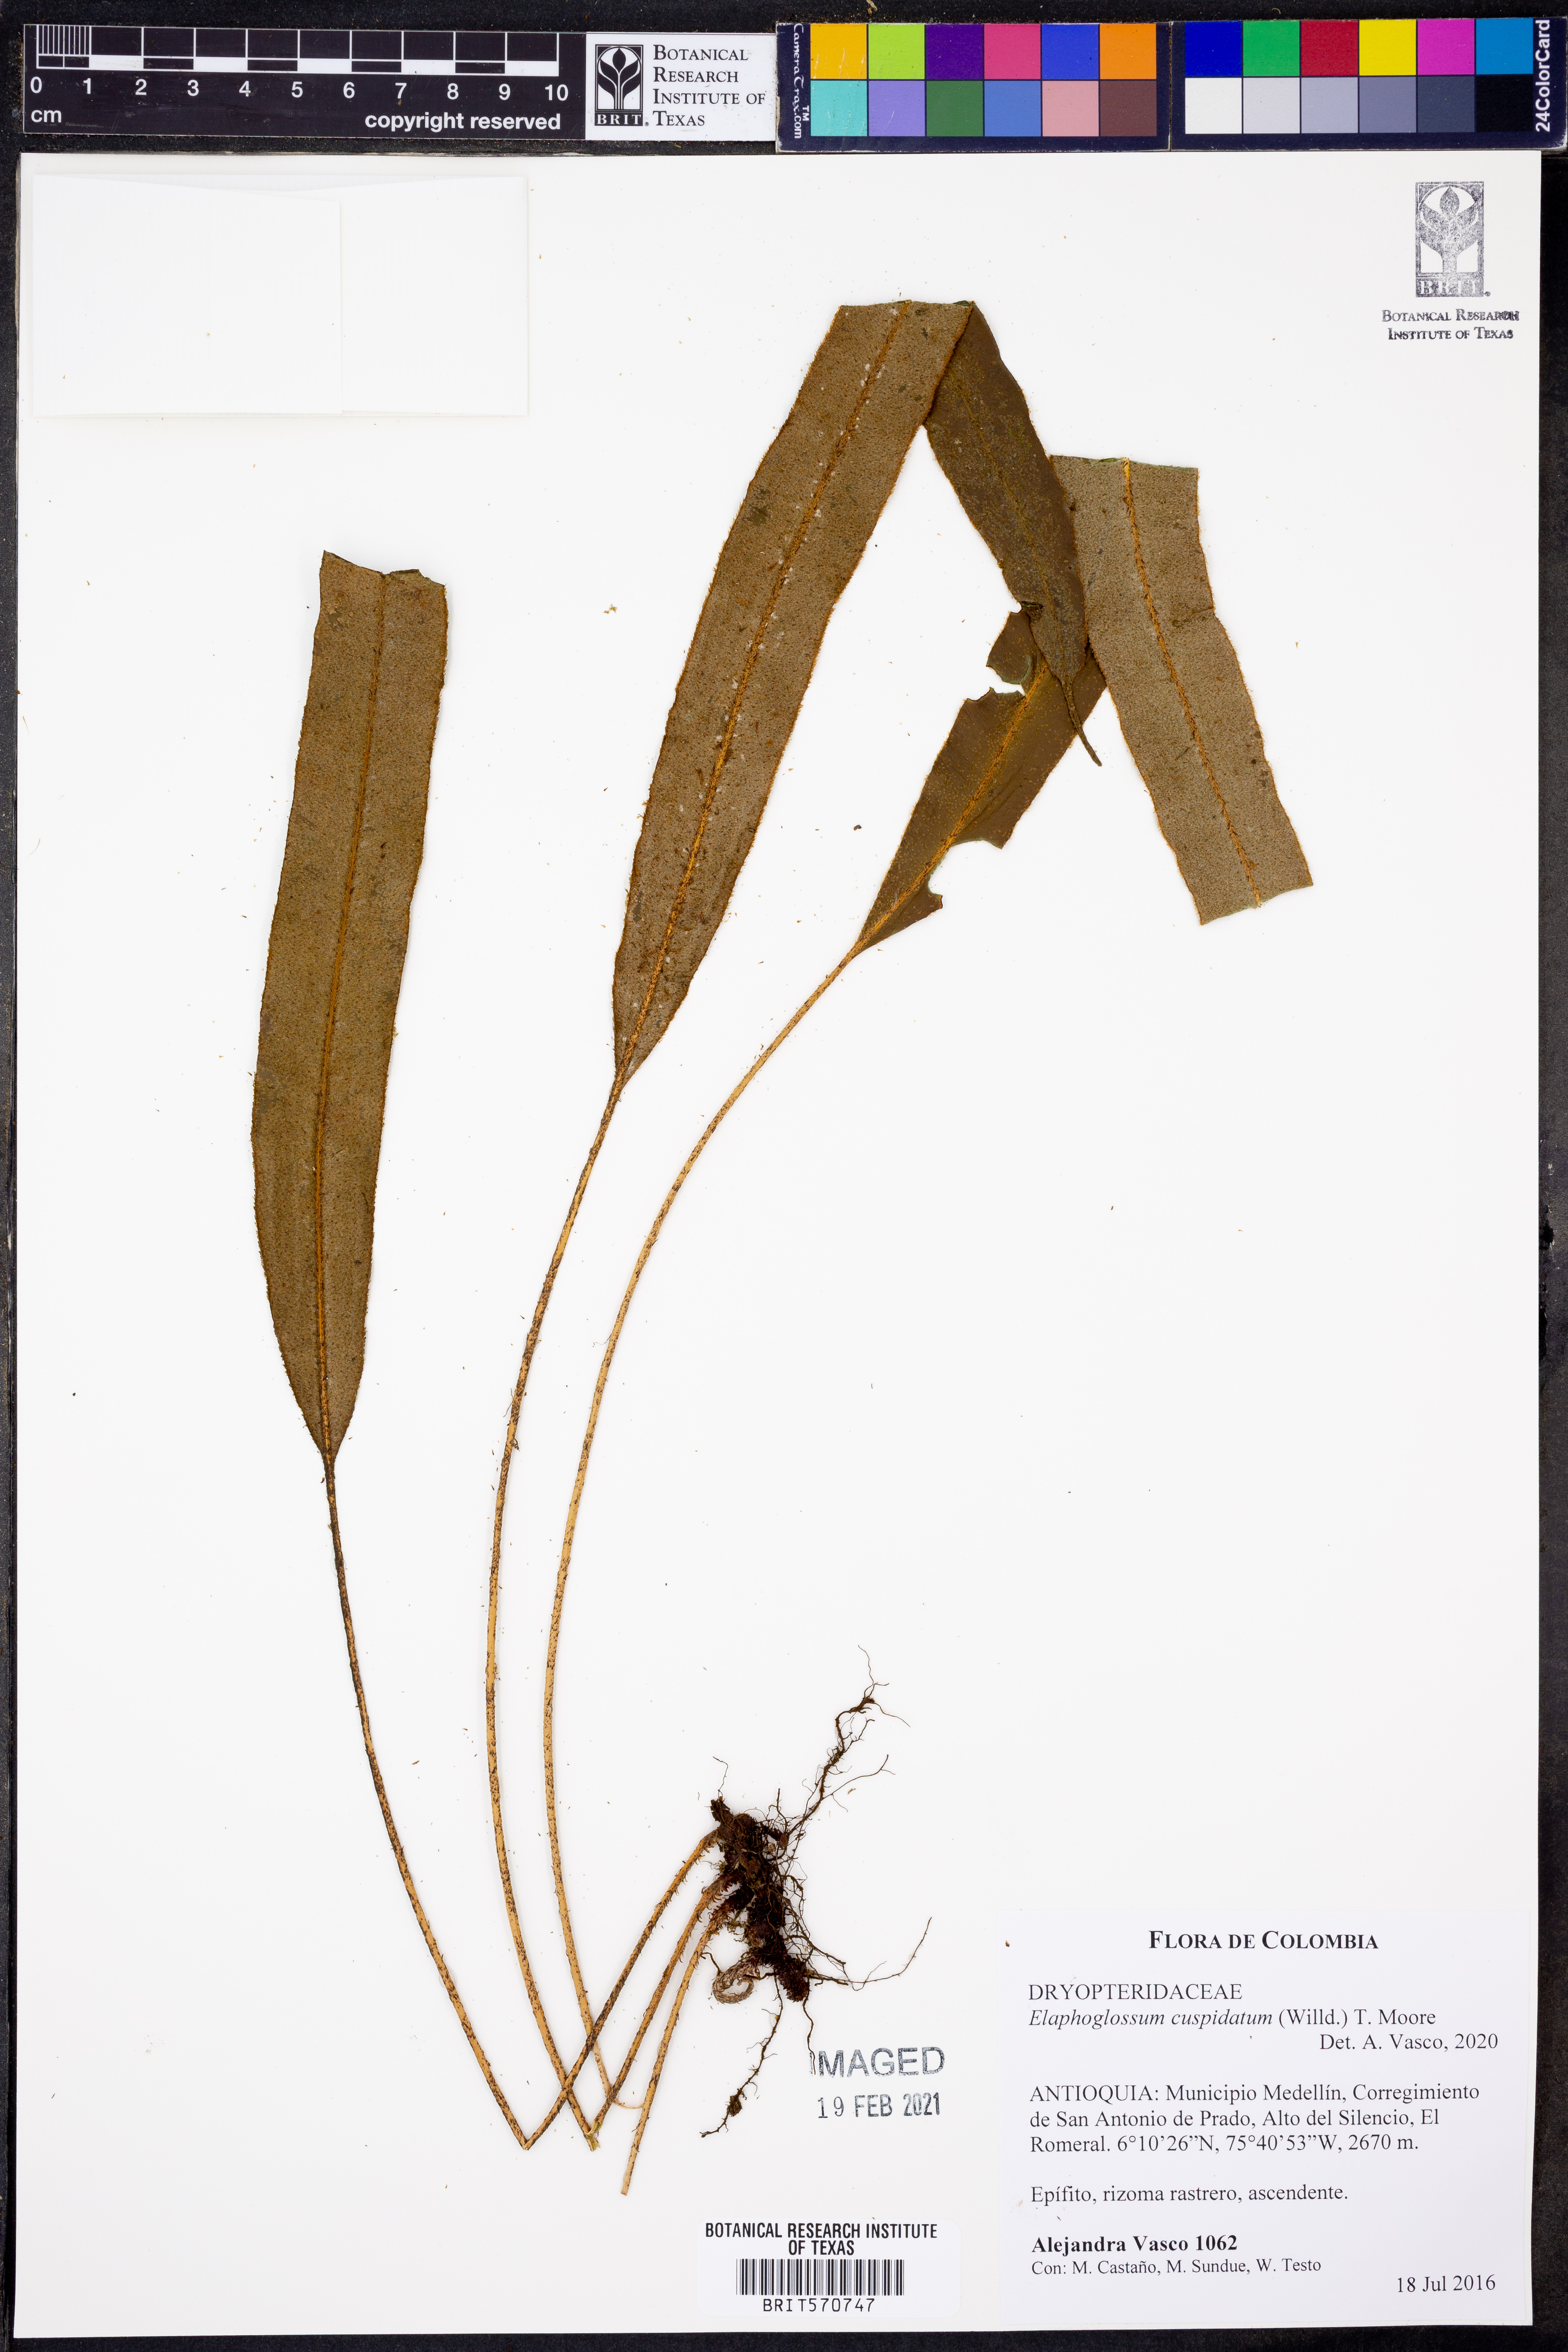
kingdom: Plantae
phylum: Tracheophyta
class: Polypodiopsida
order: Polypodiales
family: Dryopteridaceae
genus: Elaphoglossum
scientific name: Elaphoglossum cuspidatum
